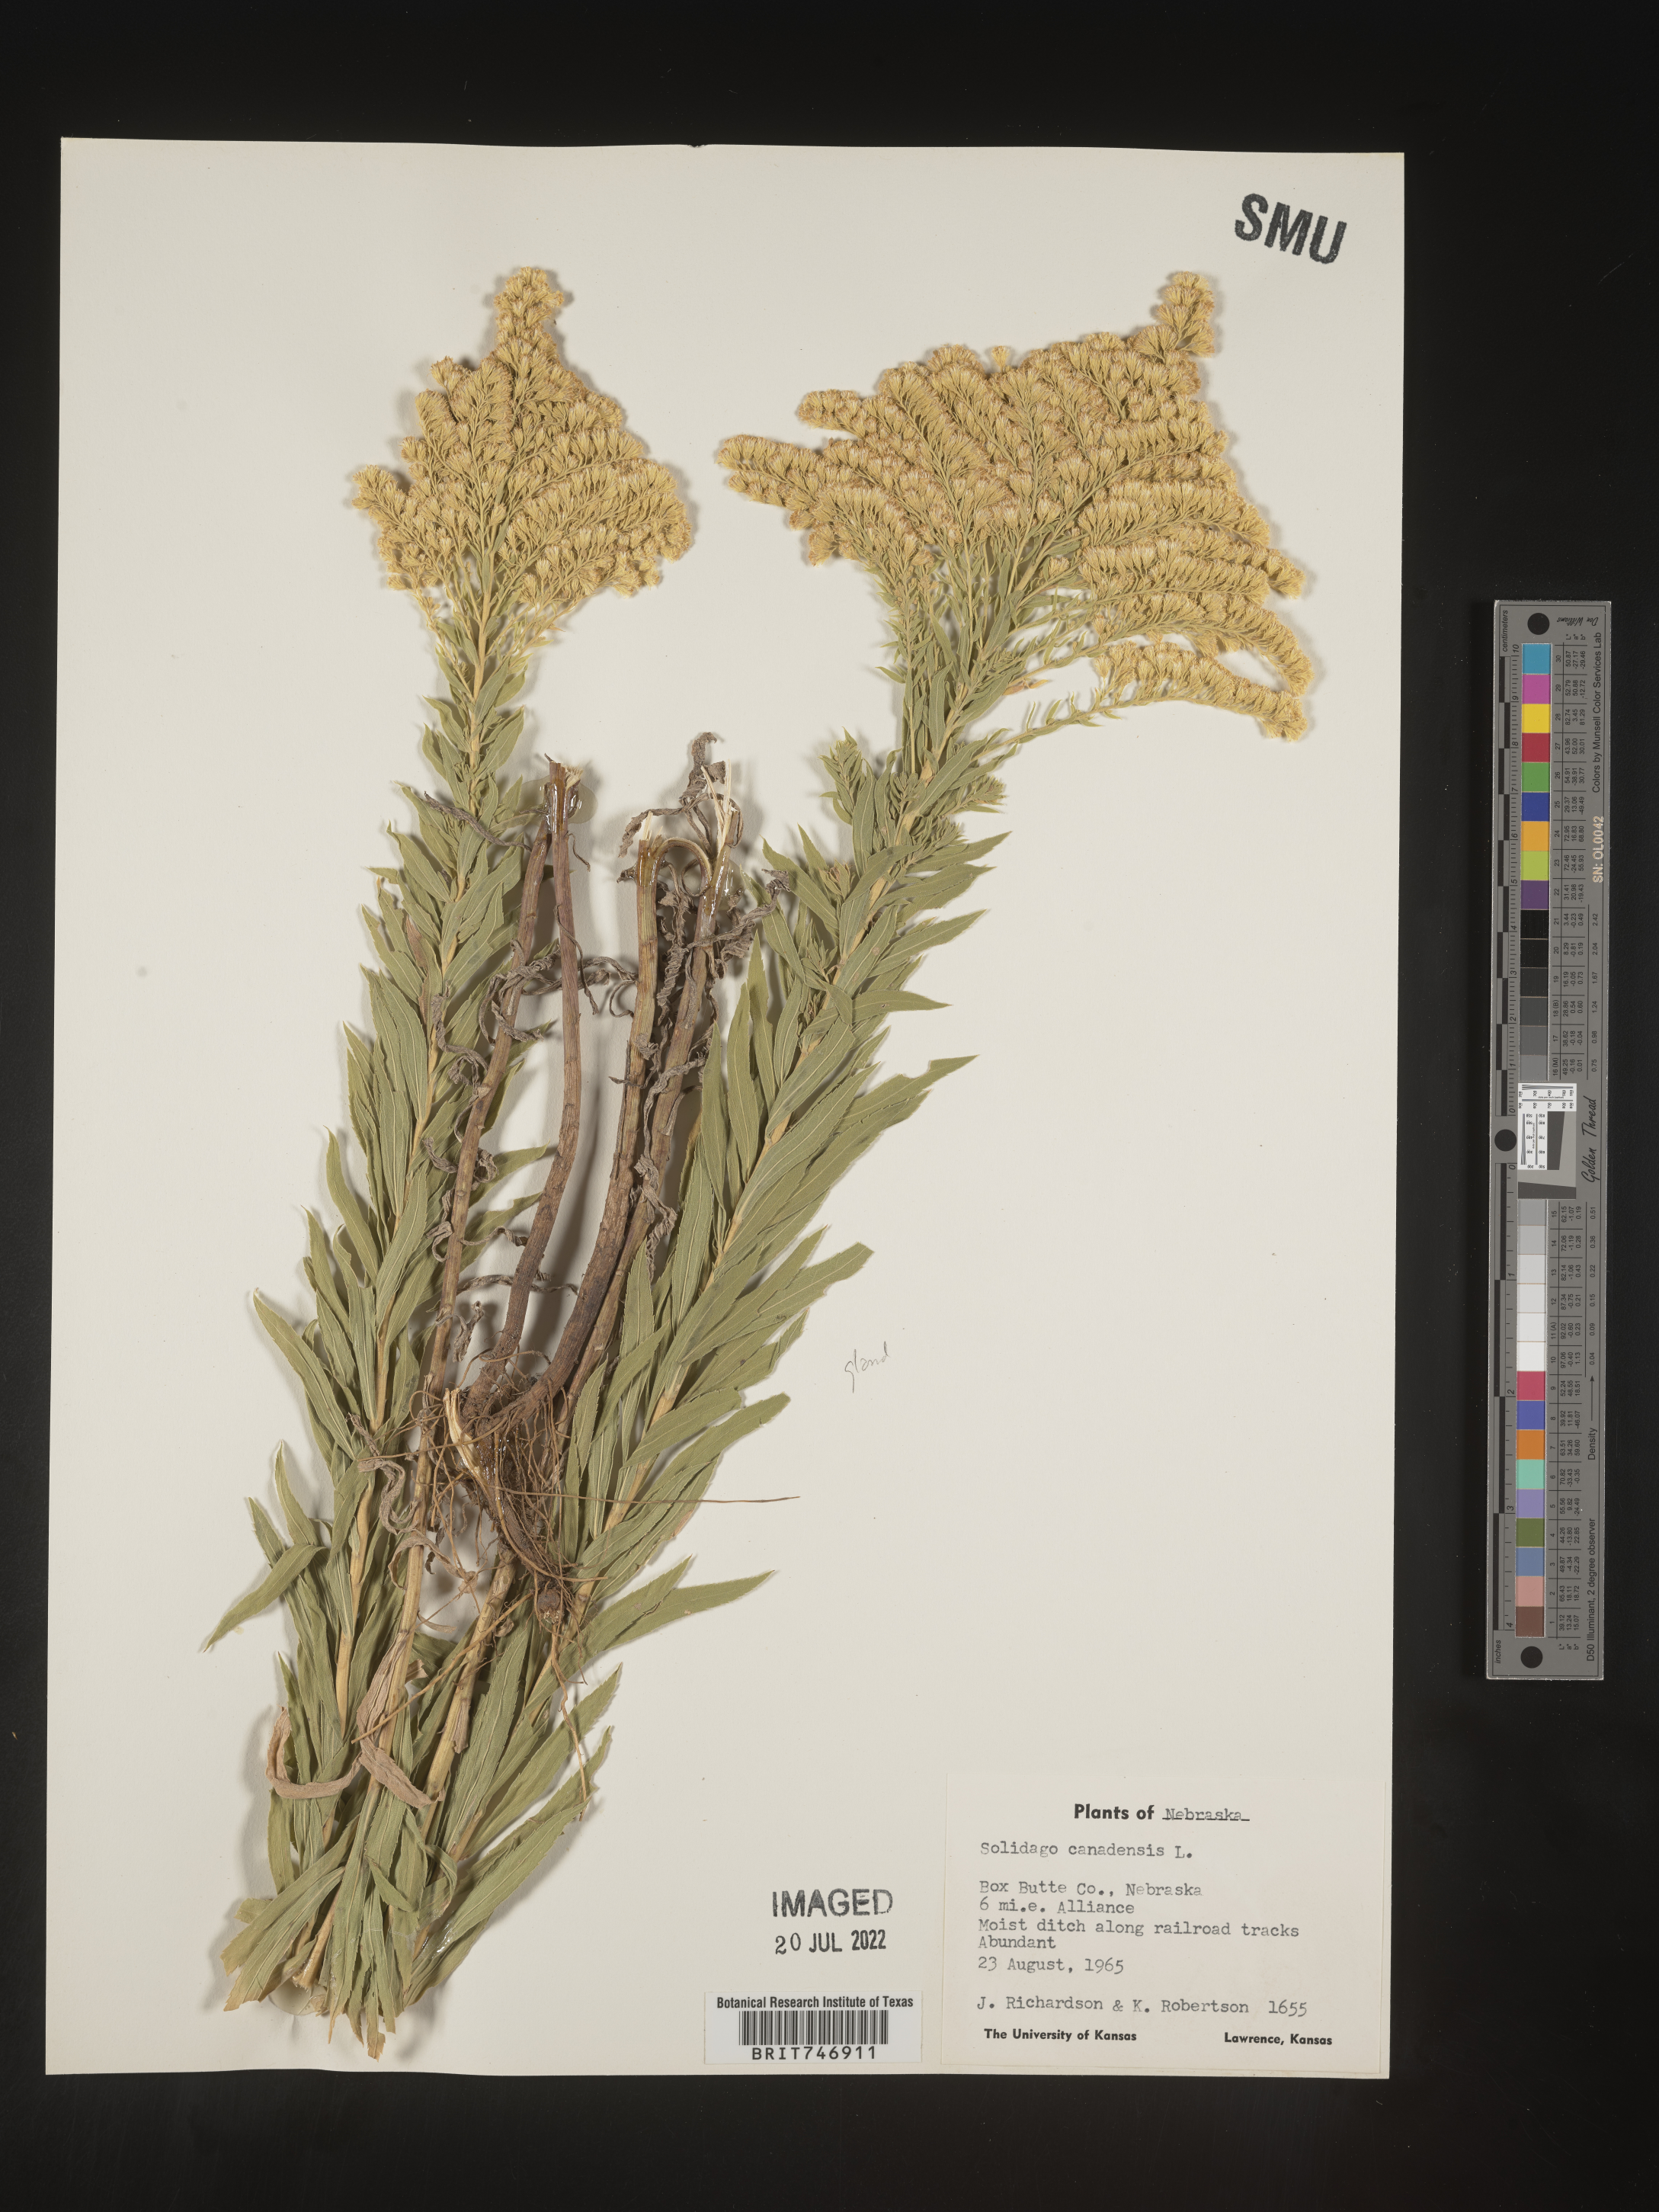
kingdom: Plantae
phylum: Tracheophyta
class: Magnoliopsida
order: Asterales
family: Asteraceae
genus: Solidago
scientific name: Solidago canadensis
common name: Canada goldenrod
